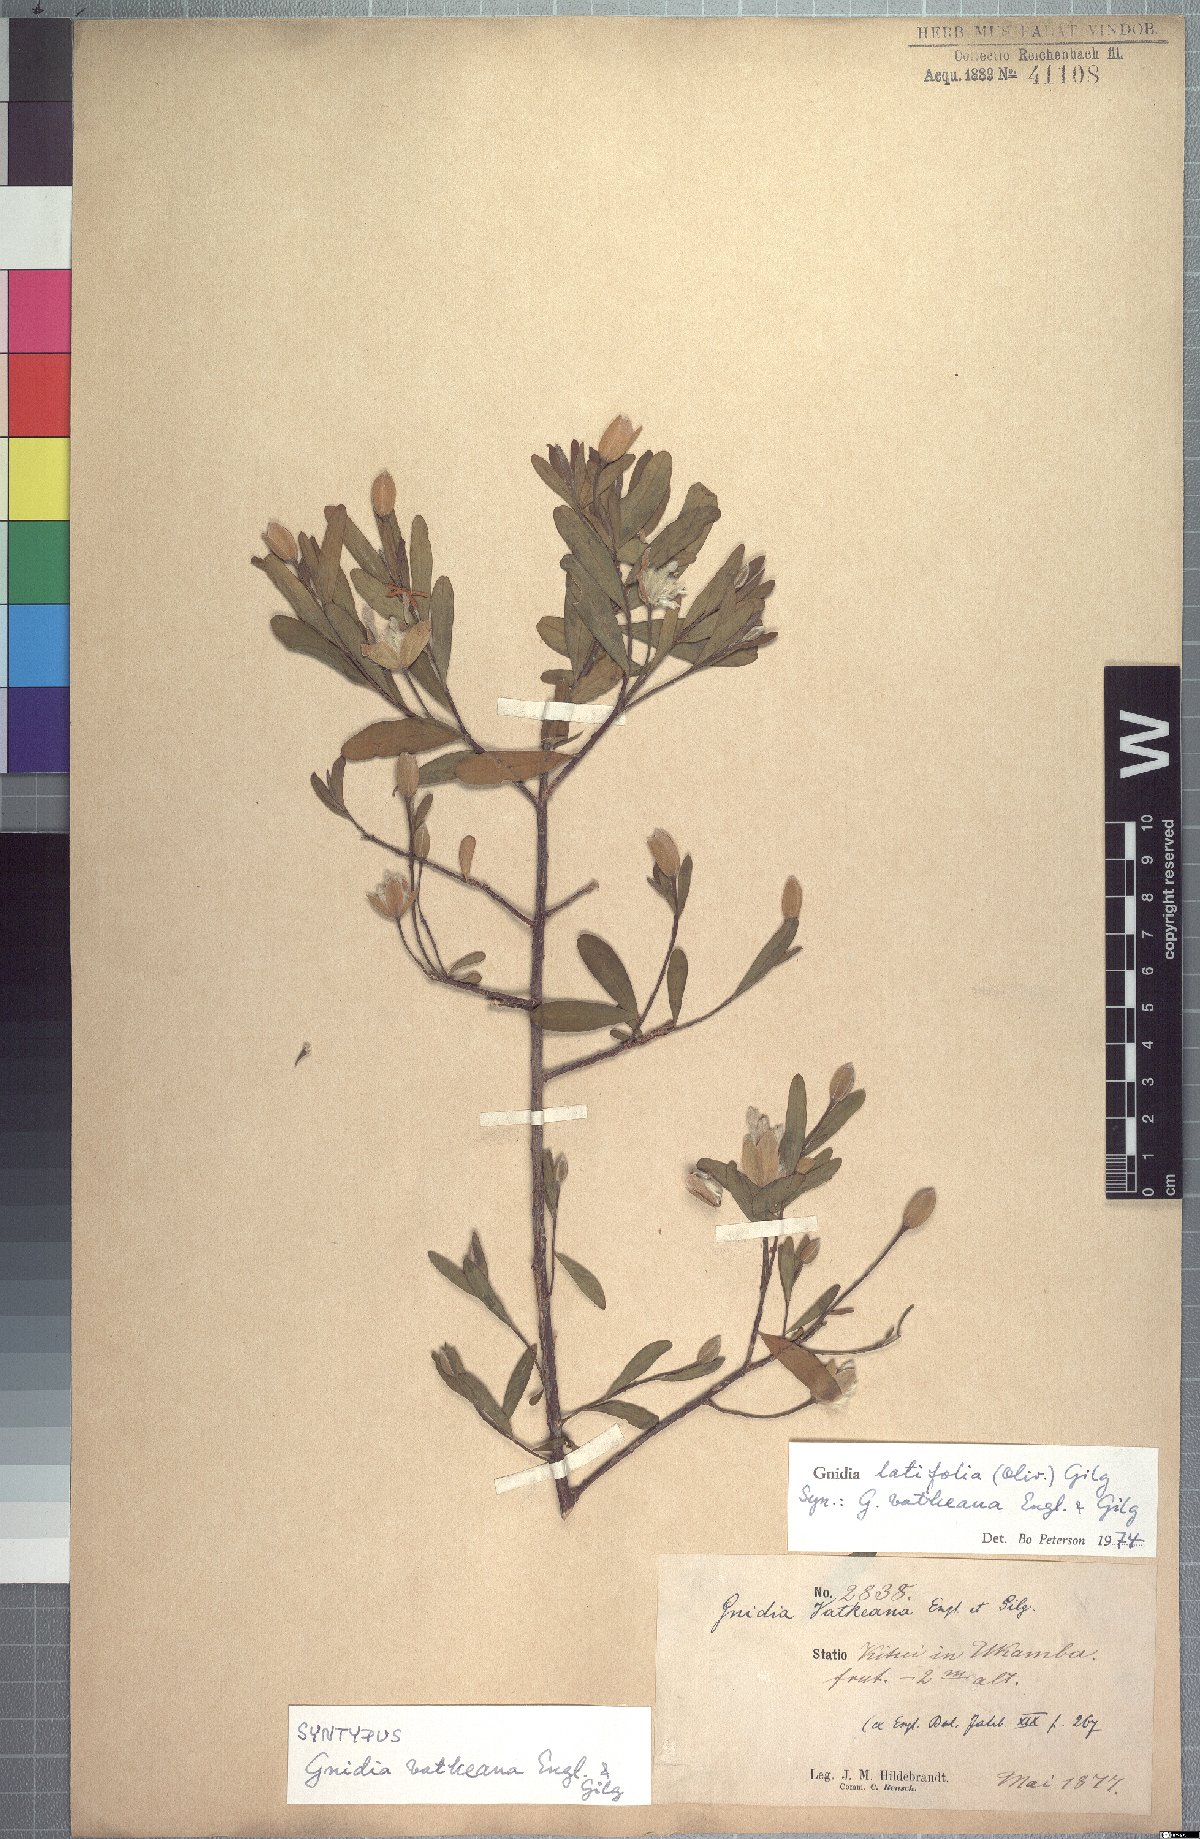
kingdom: Plantae
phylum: Tracheophyta
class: Magnoliopsida
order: Malvales
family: Thymelaeaceae
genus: Gnidia
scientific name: Gnidia latifolia
